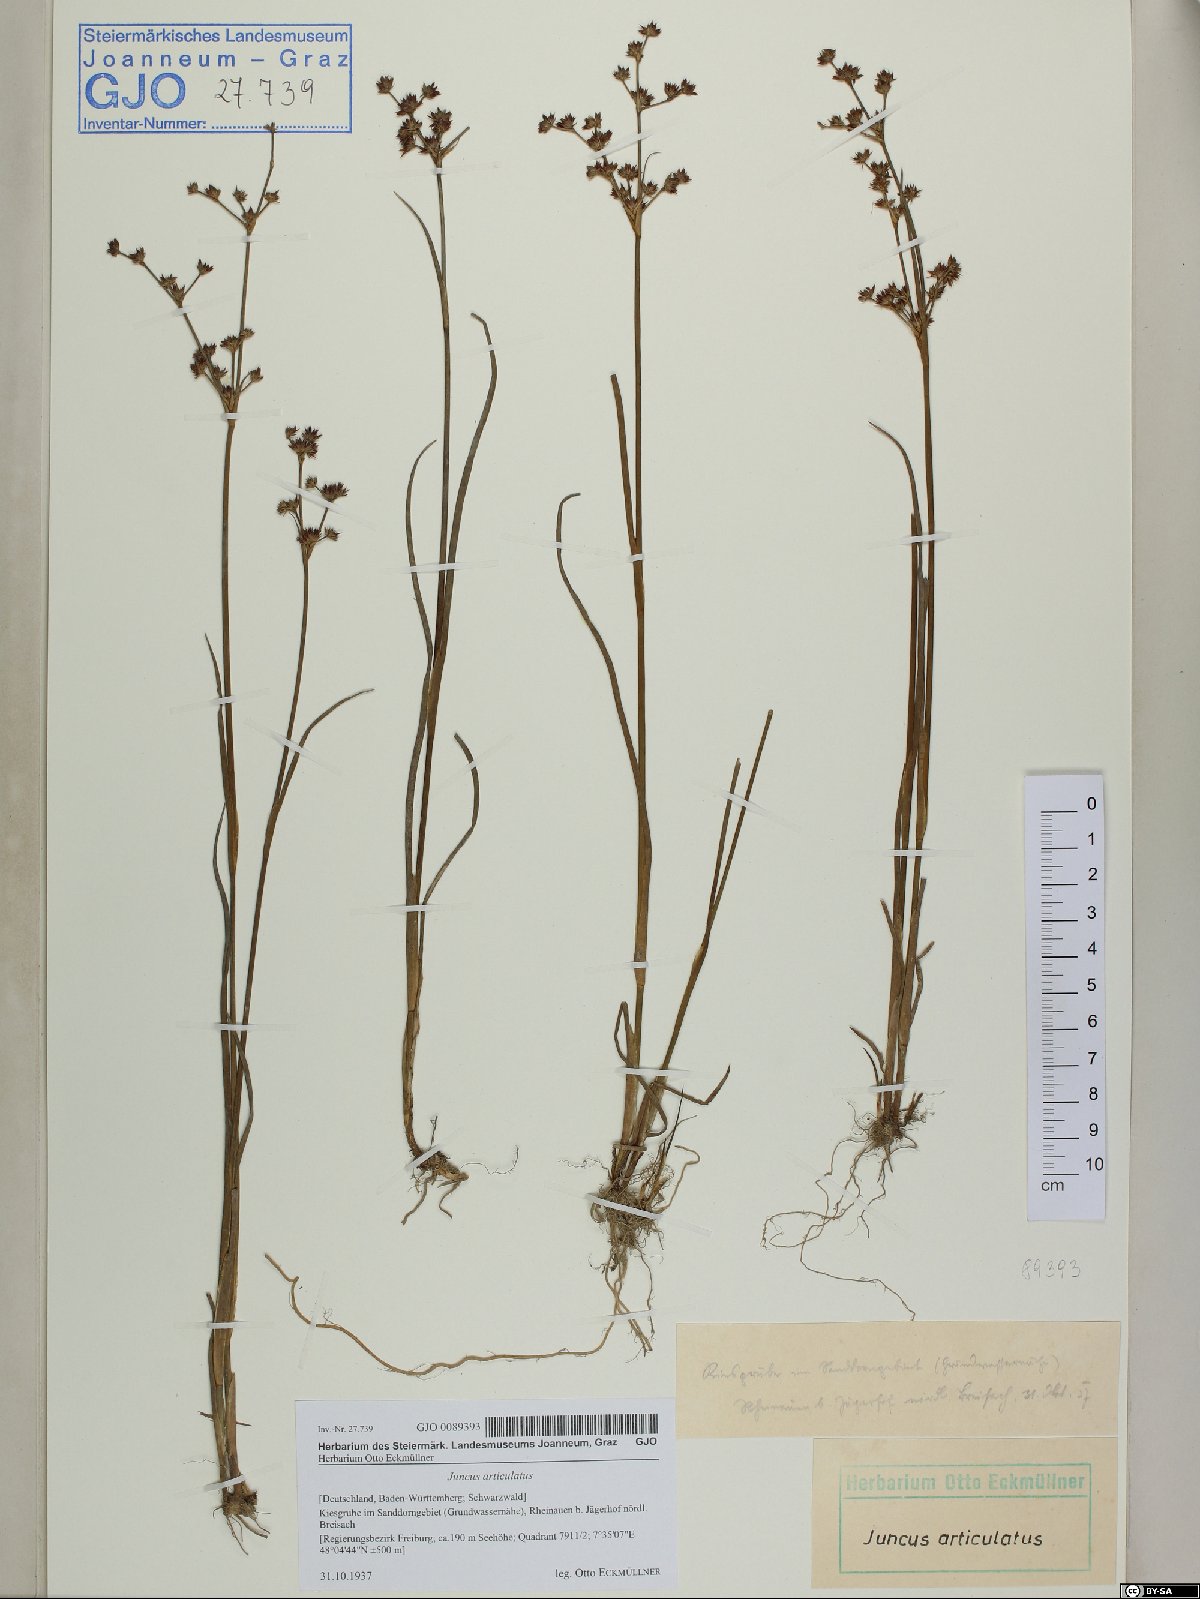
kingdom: Plantae
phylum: Tracheophyta
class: Liliopsida
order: Poales
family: Juncaceae
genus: Juncus
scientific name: Juncus articulatus
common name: Jointed rush
